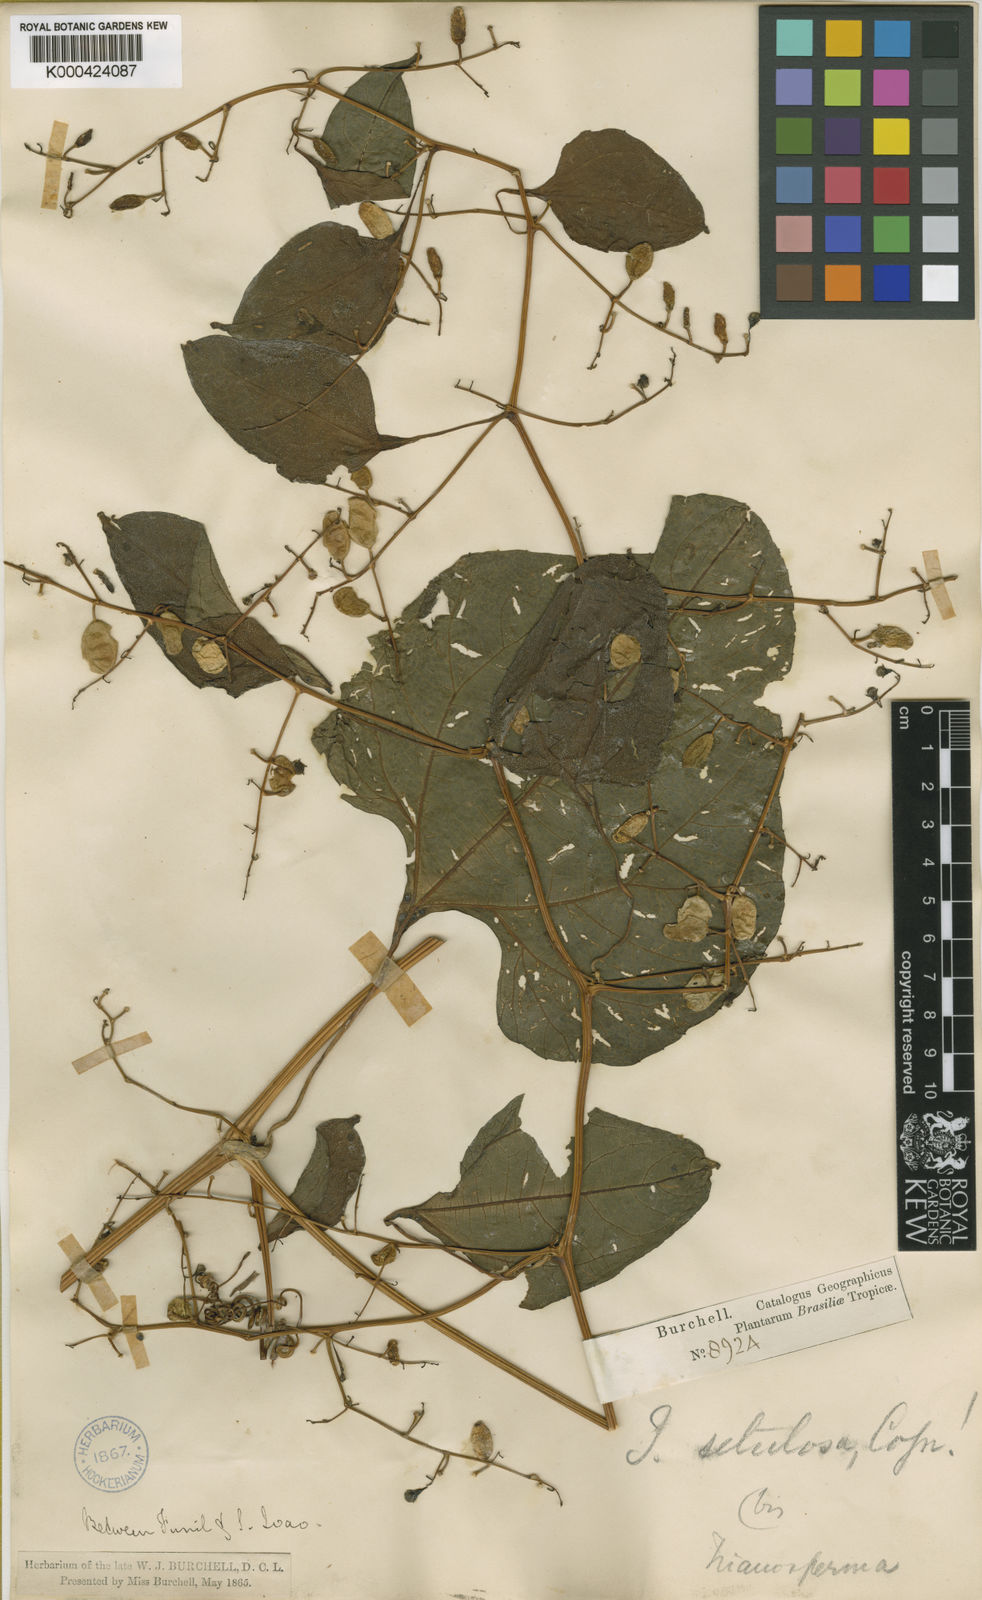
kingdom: Plantae
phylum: Tracheophyta
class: Magnoliopsida
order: Cucurbitales
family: Cucurbitaceae
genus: Cayaponia
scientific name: Cayaponia setulosa
